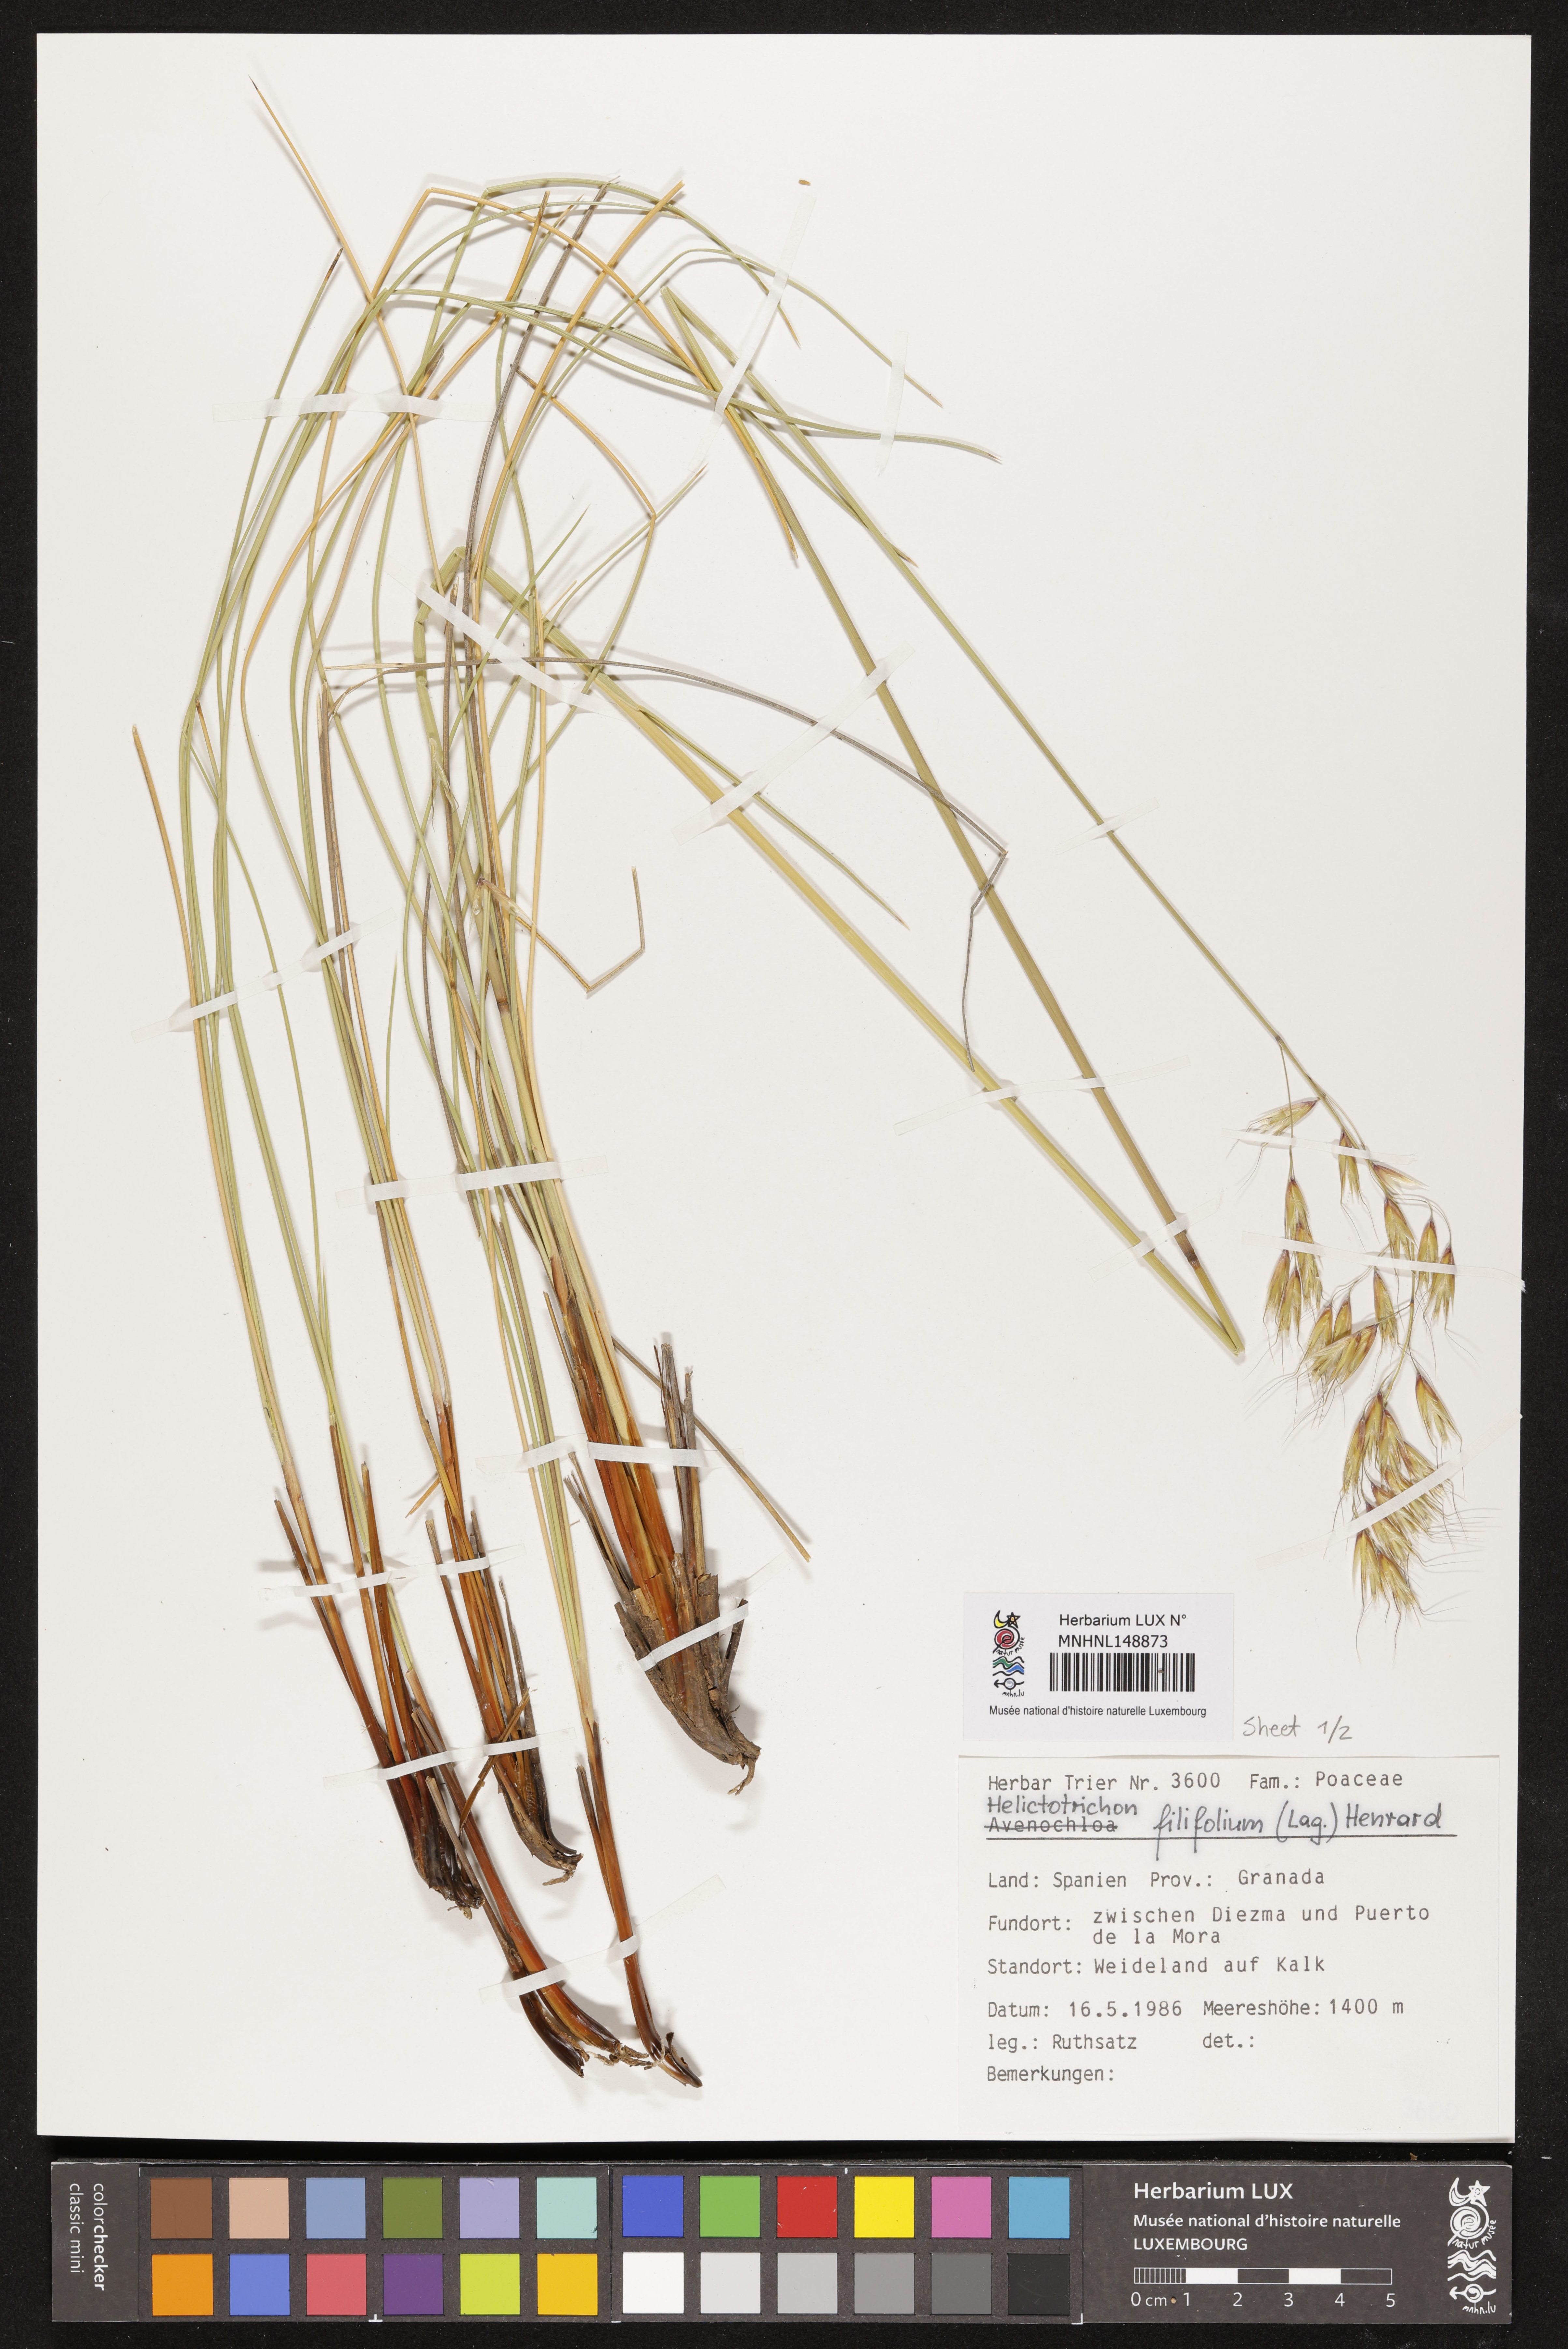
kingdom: Plantae
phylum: Tracheophyta
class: Liliopsida
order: Poales
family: Poaceae
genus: Helictotrichon
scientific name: Helictotrichon filifolium
